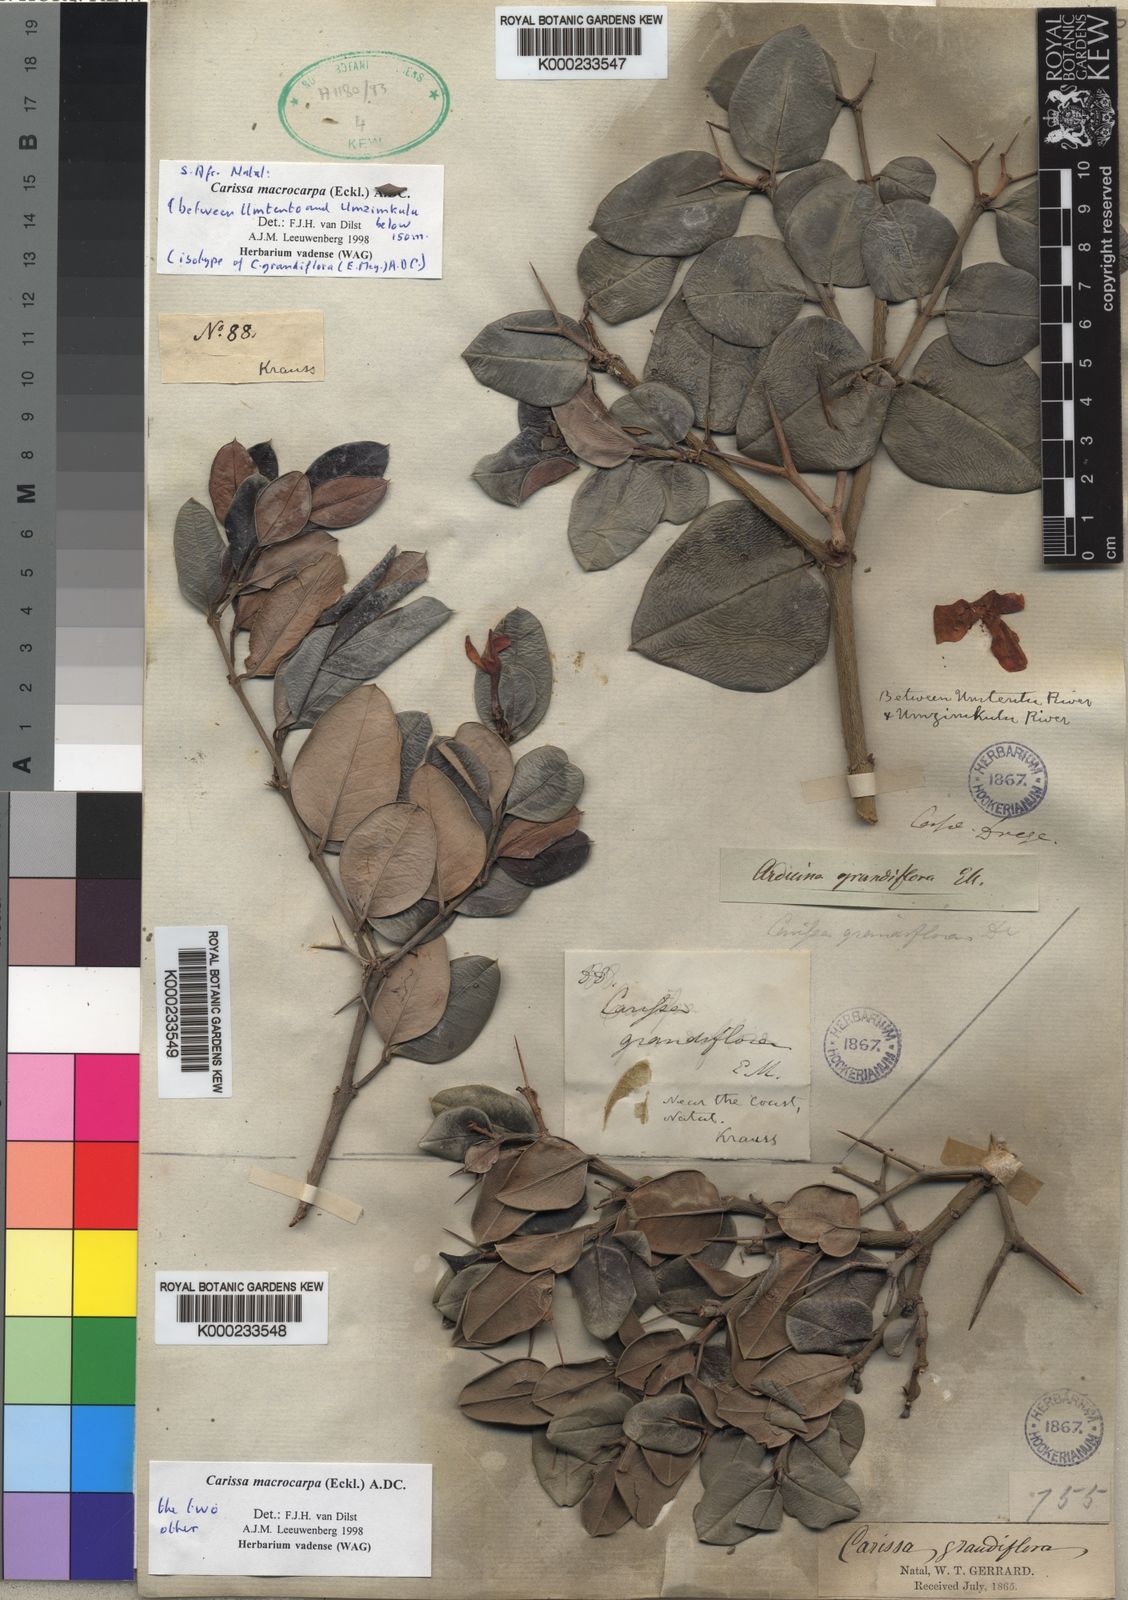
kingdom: Plantae
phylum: Tracheophyta
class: Magnoliopsida
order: Gentianales
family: Apocynaceae
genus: Carissa
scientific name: Carissa macrocarpa
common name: Natal plum
